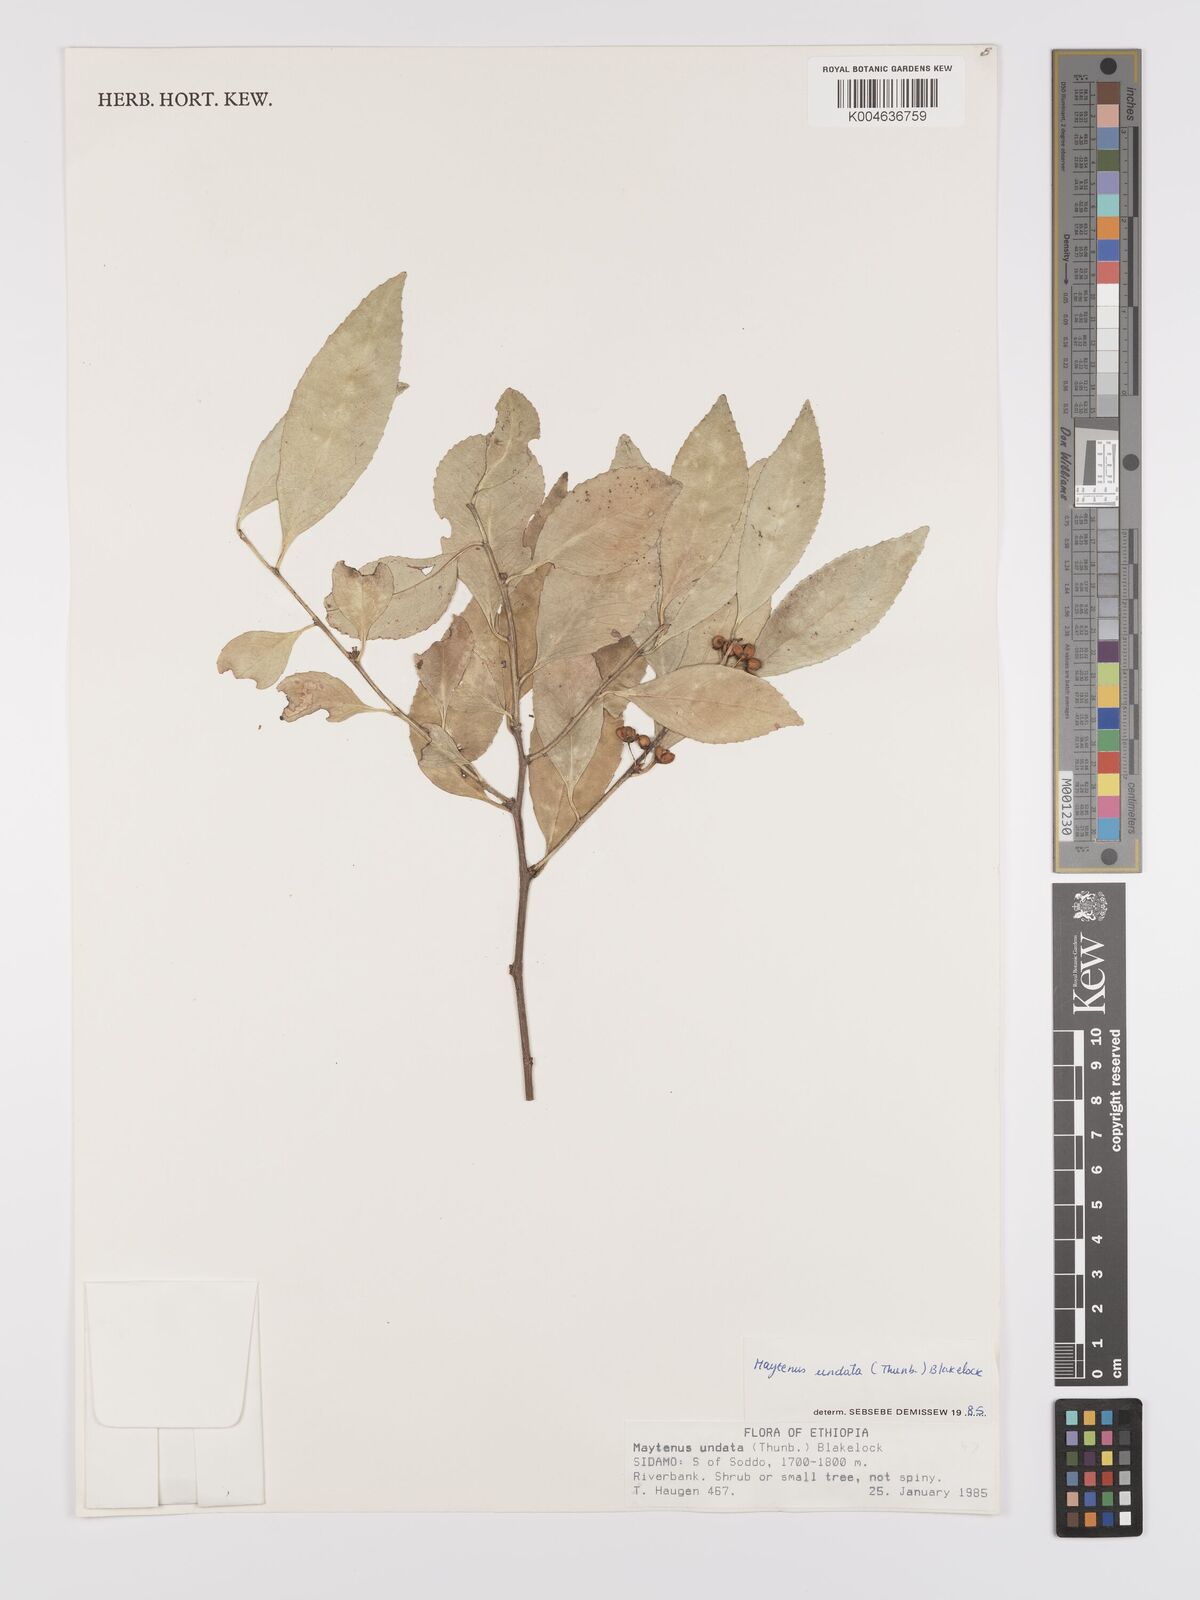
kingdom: Plantae
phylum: Tracheophyta
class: Magnoliopsida
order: Celastrales
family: Celastraceae
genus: Gymnosporia
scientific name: Gymnosporia undata
